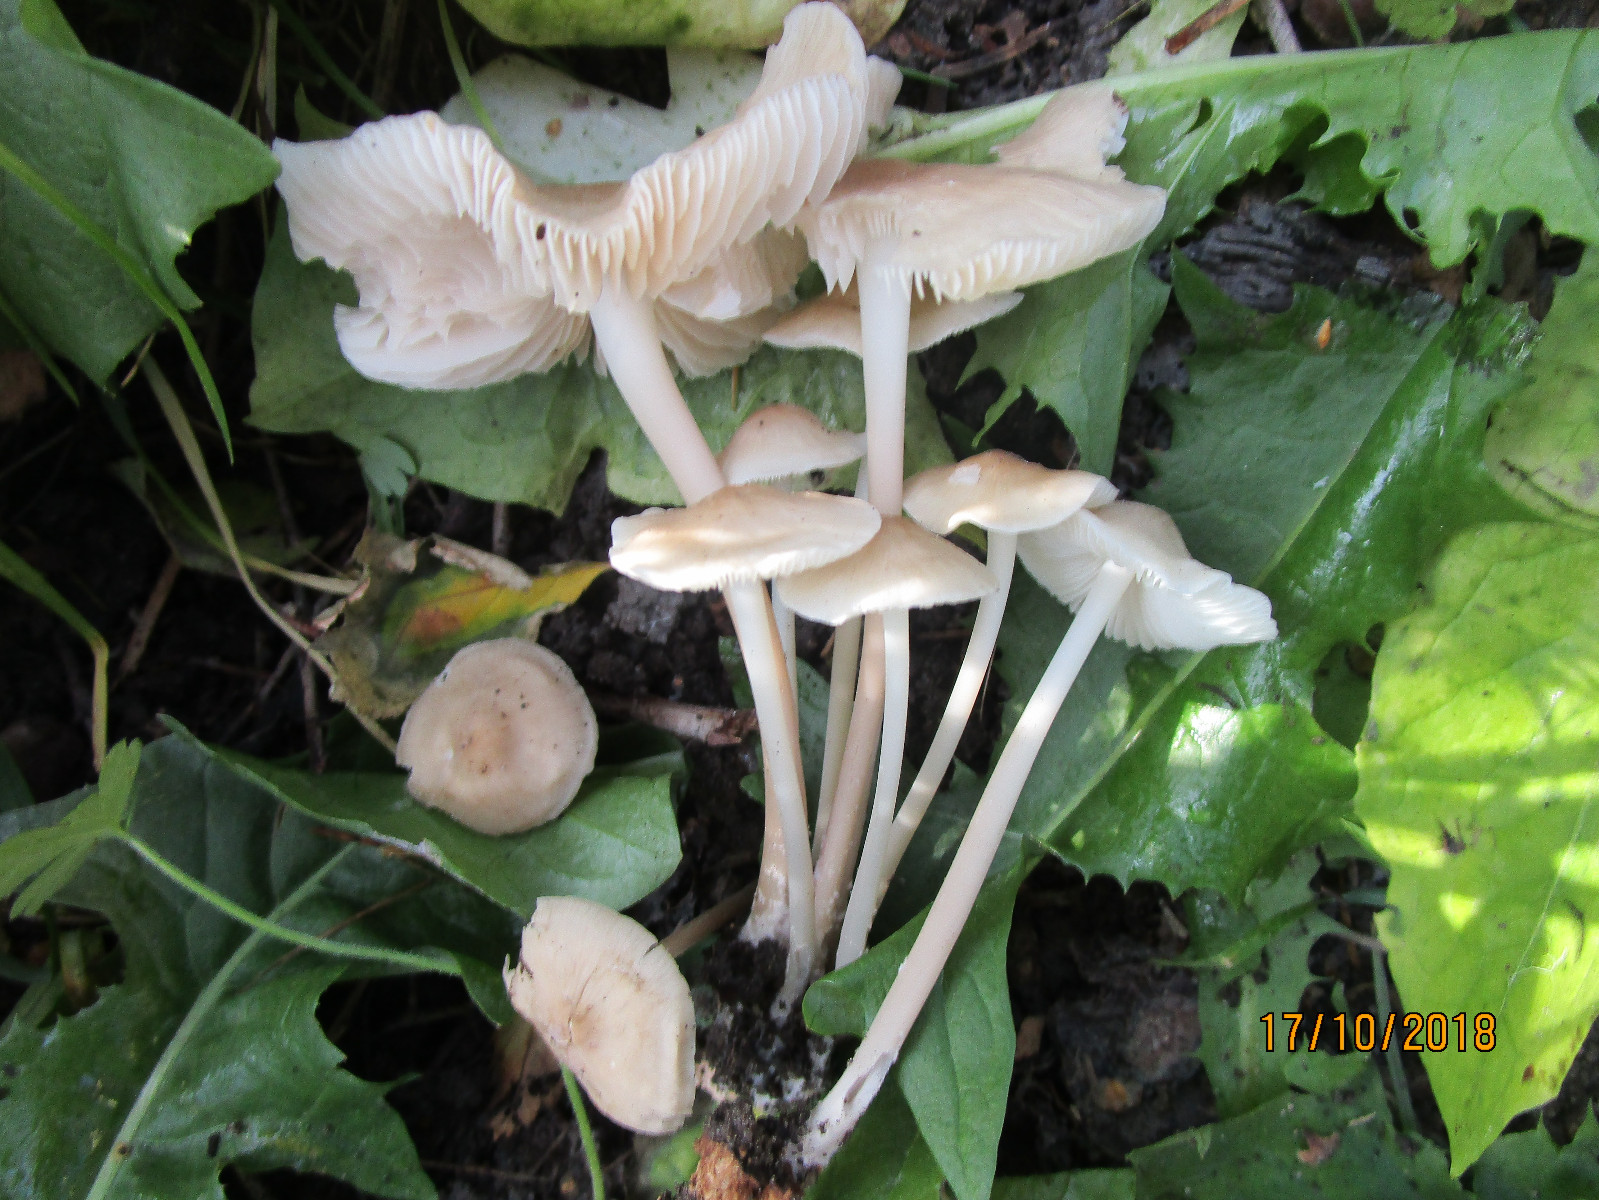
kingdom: Fungi
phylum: Basidiomycota
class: Agaricomycetes
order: Agaricales
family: Mycenaceae
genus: Mycena
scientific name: Mycena galericulata
